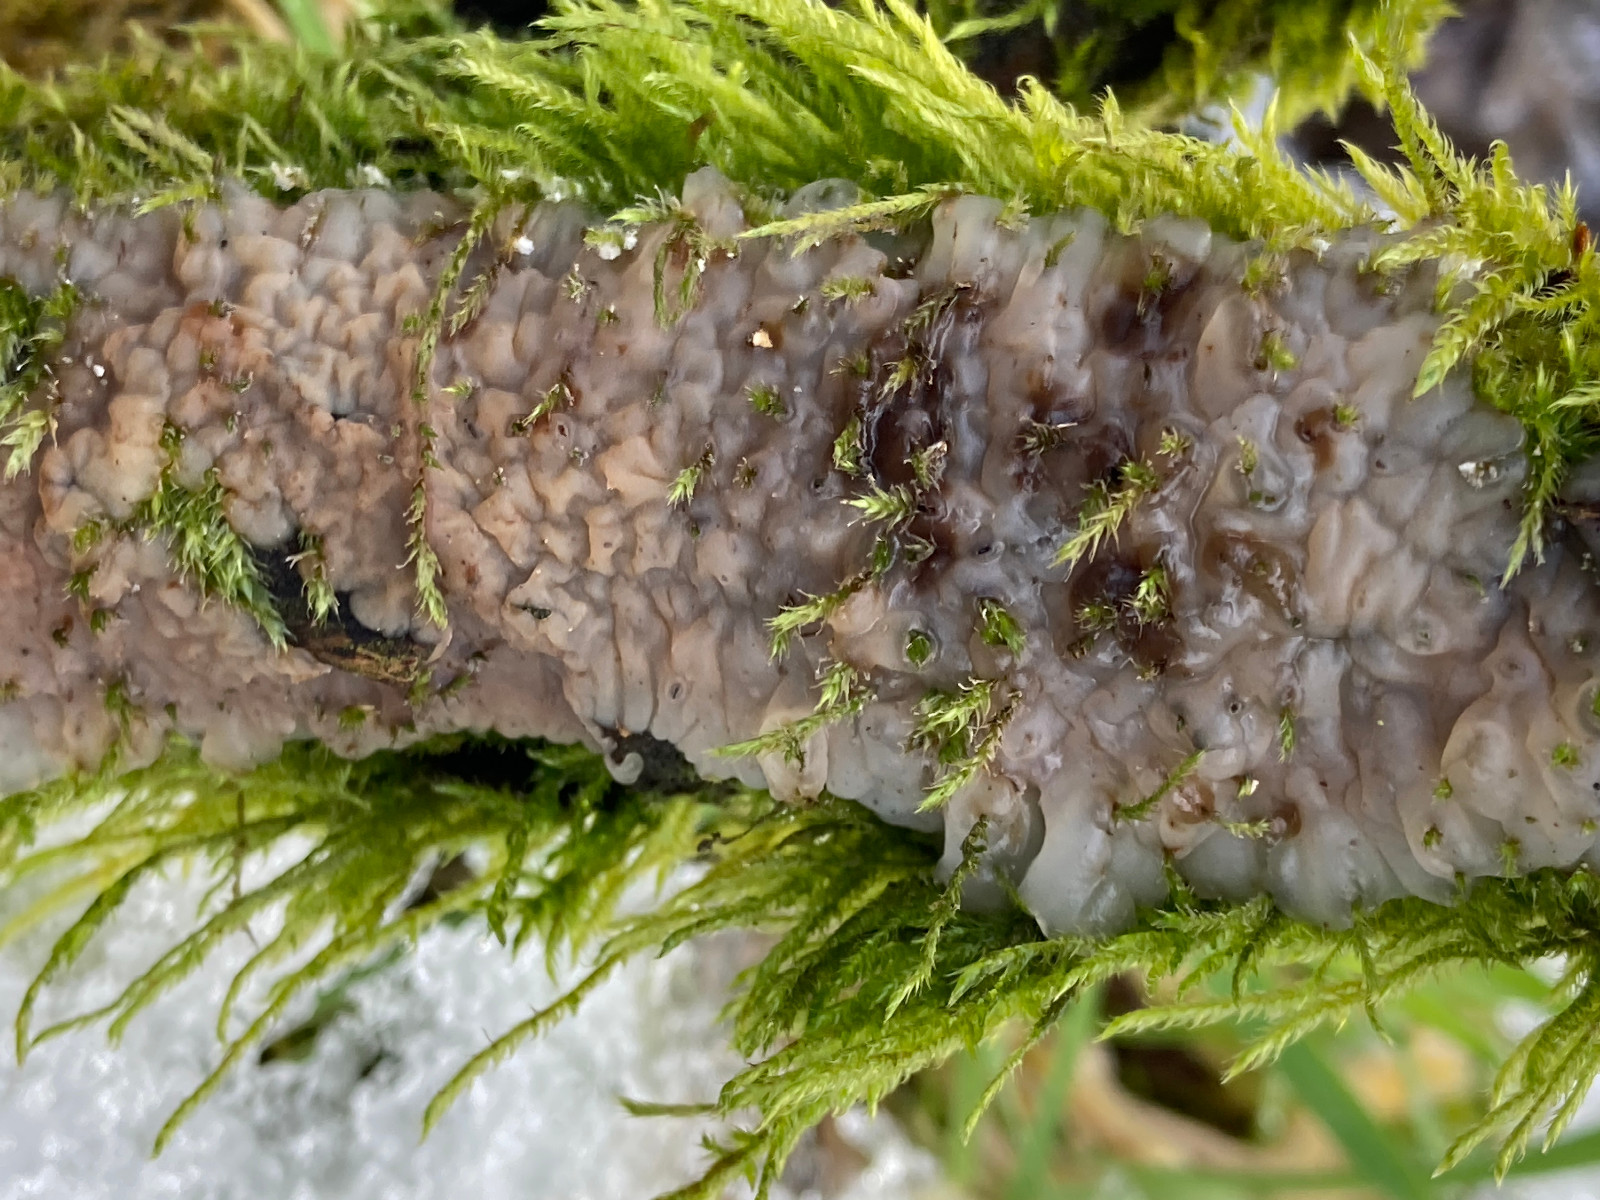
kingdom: Fungi
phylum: Basidiomycota
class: Agaricomycetes
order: Auriculariales
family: Auriculariaceae
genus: Exidia
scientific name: Exidia thuretiana
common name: hvidlig bævretop
